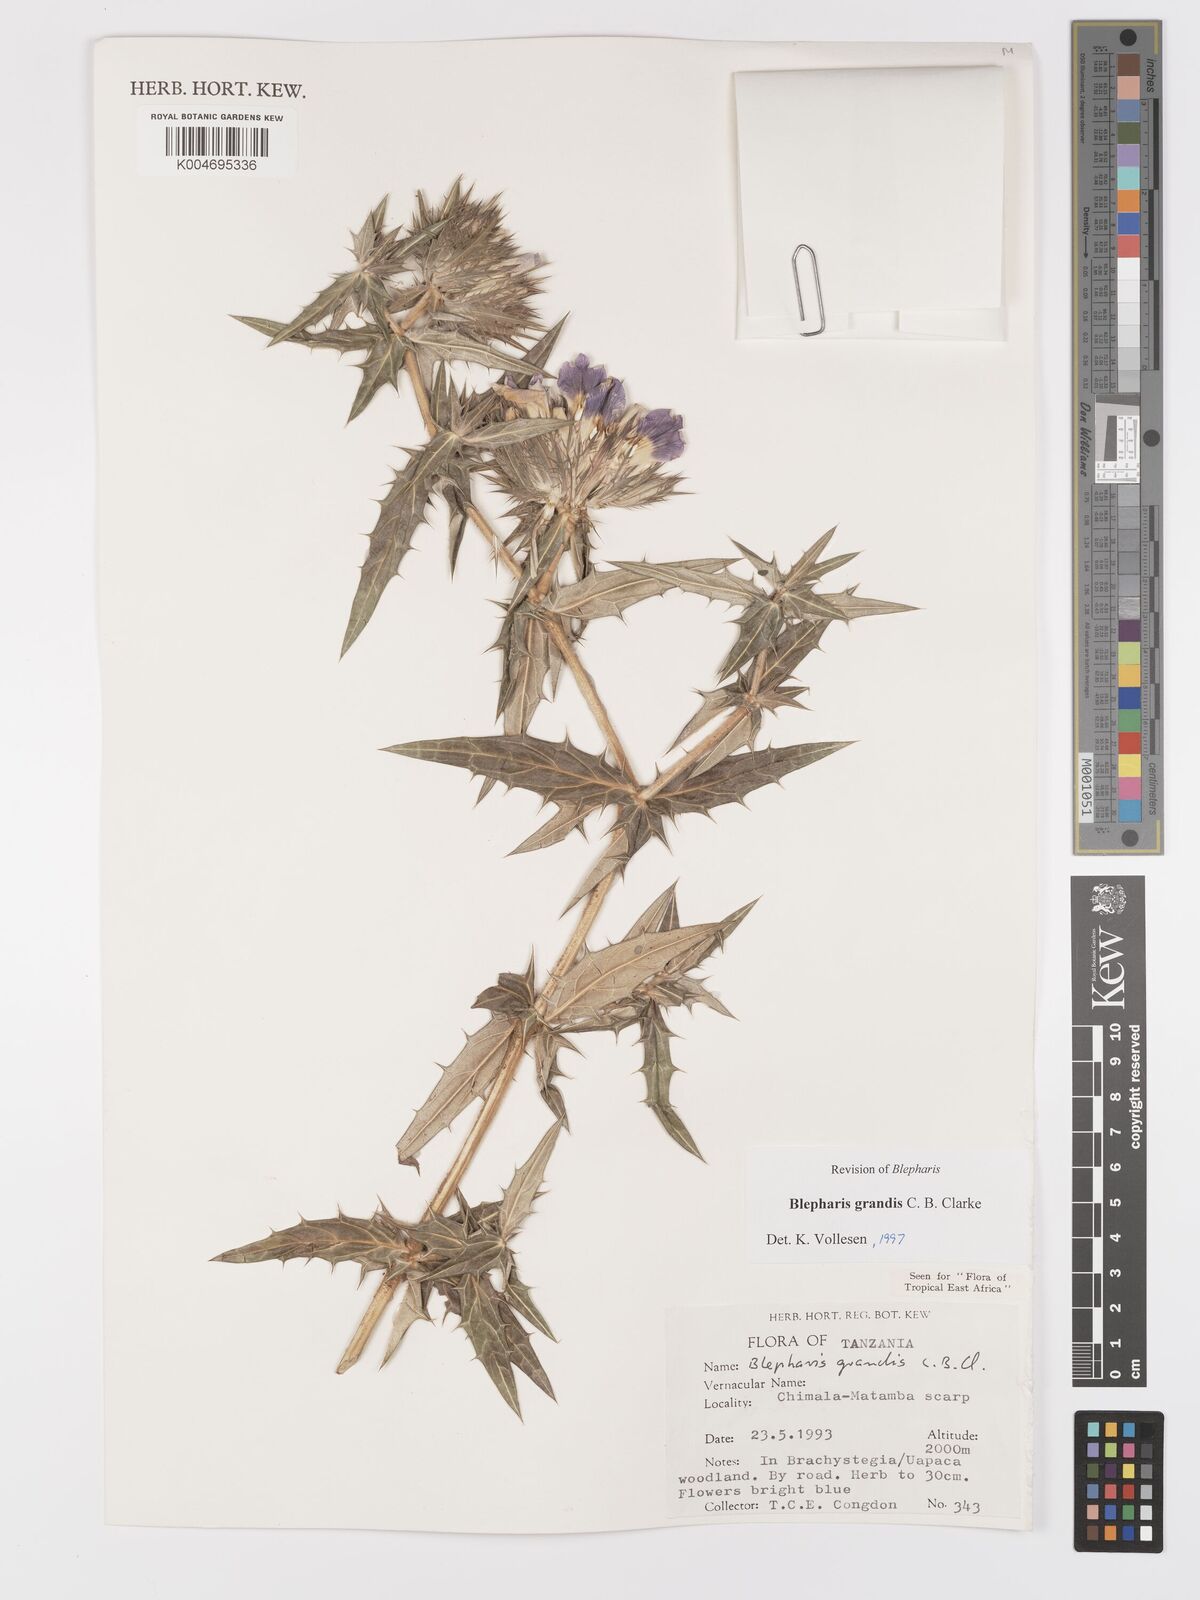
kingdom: Plantae
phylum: Tracheophyta
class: Magnoliopsida
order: Lamiales
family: Acanthaceae
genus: Blepharis
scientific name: Blepharis grandis
